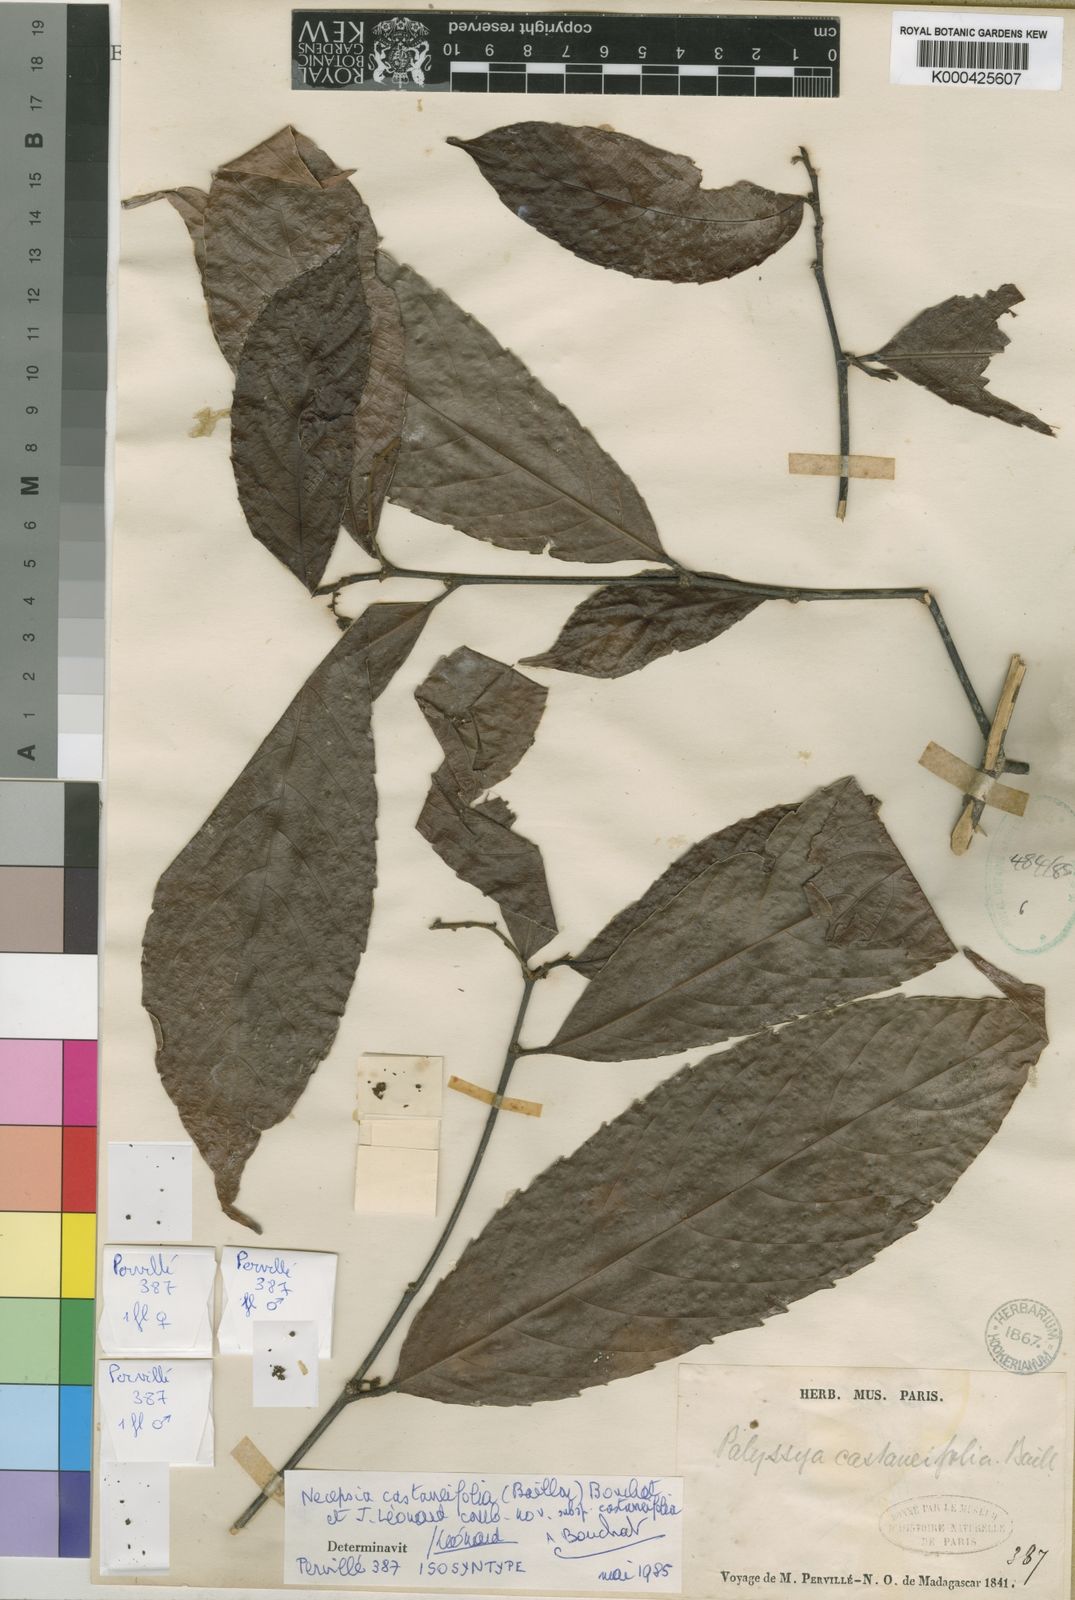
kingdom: Plantae
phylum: Tracheophyta
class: Magnoliopsida
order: Malpighiales
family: Euphorbiaceae
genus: Necepsia
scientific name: Necepsia
